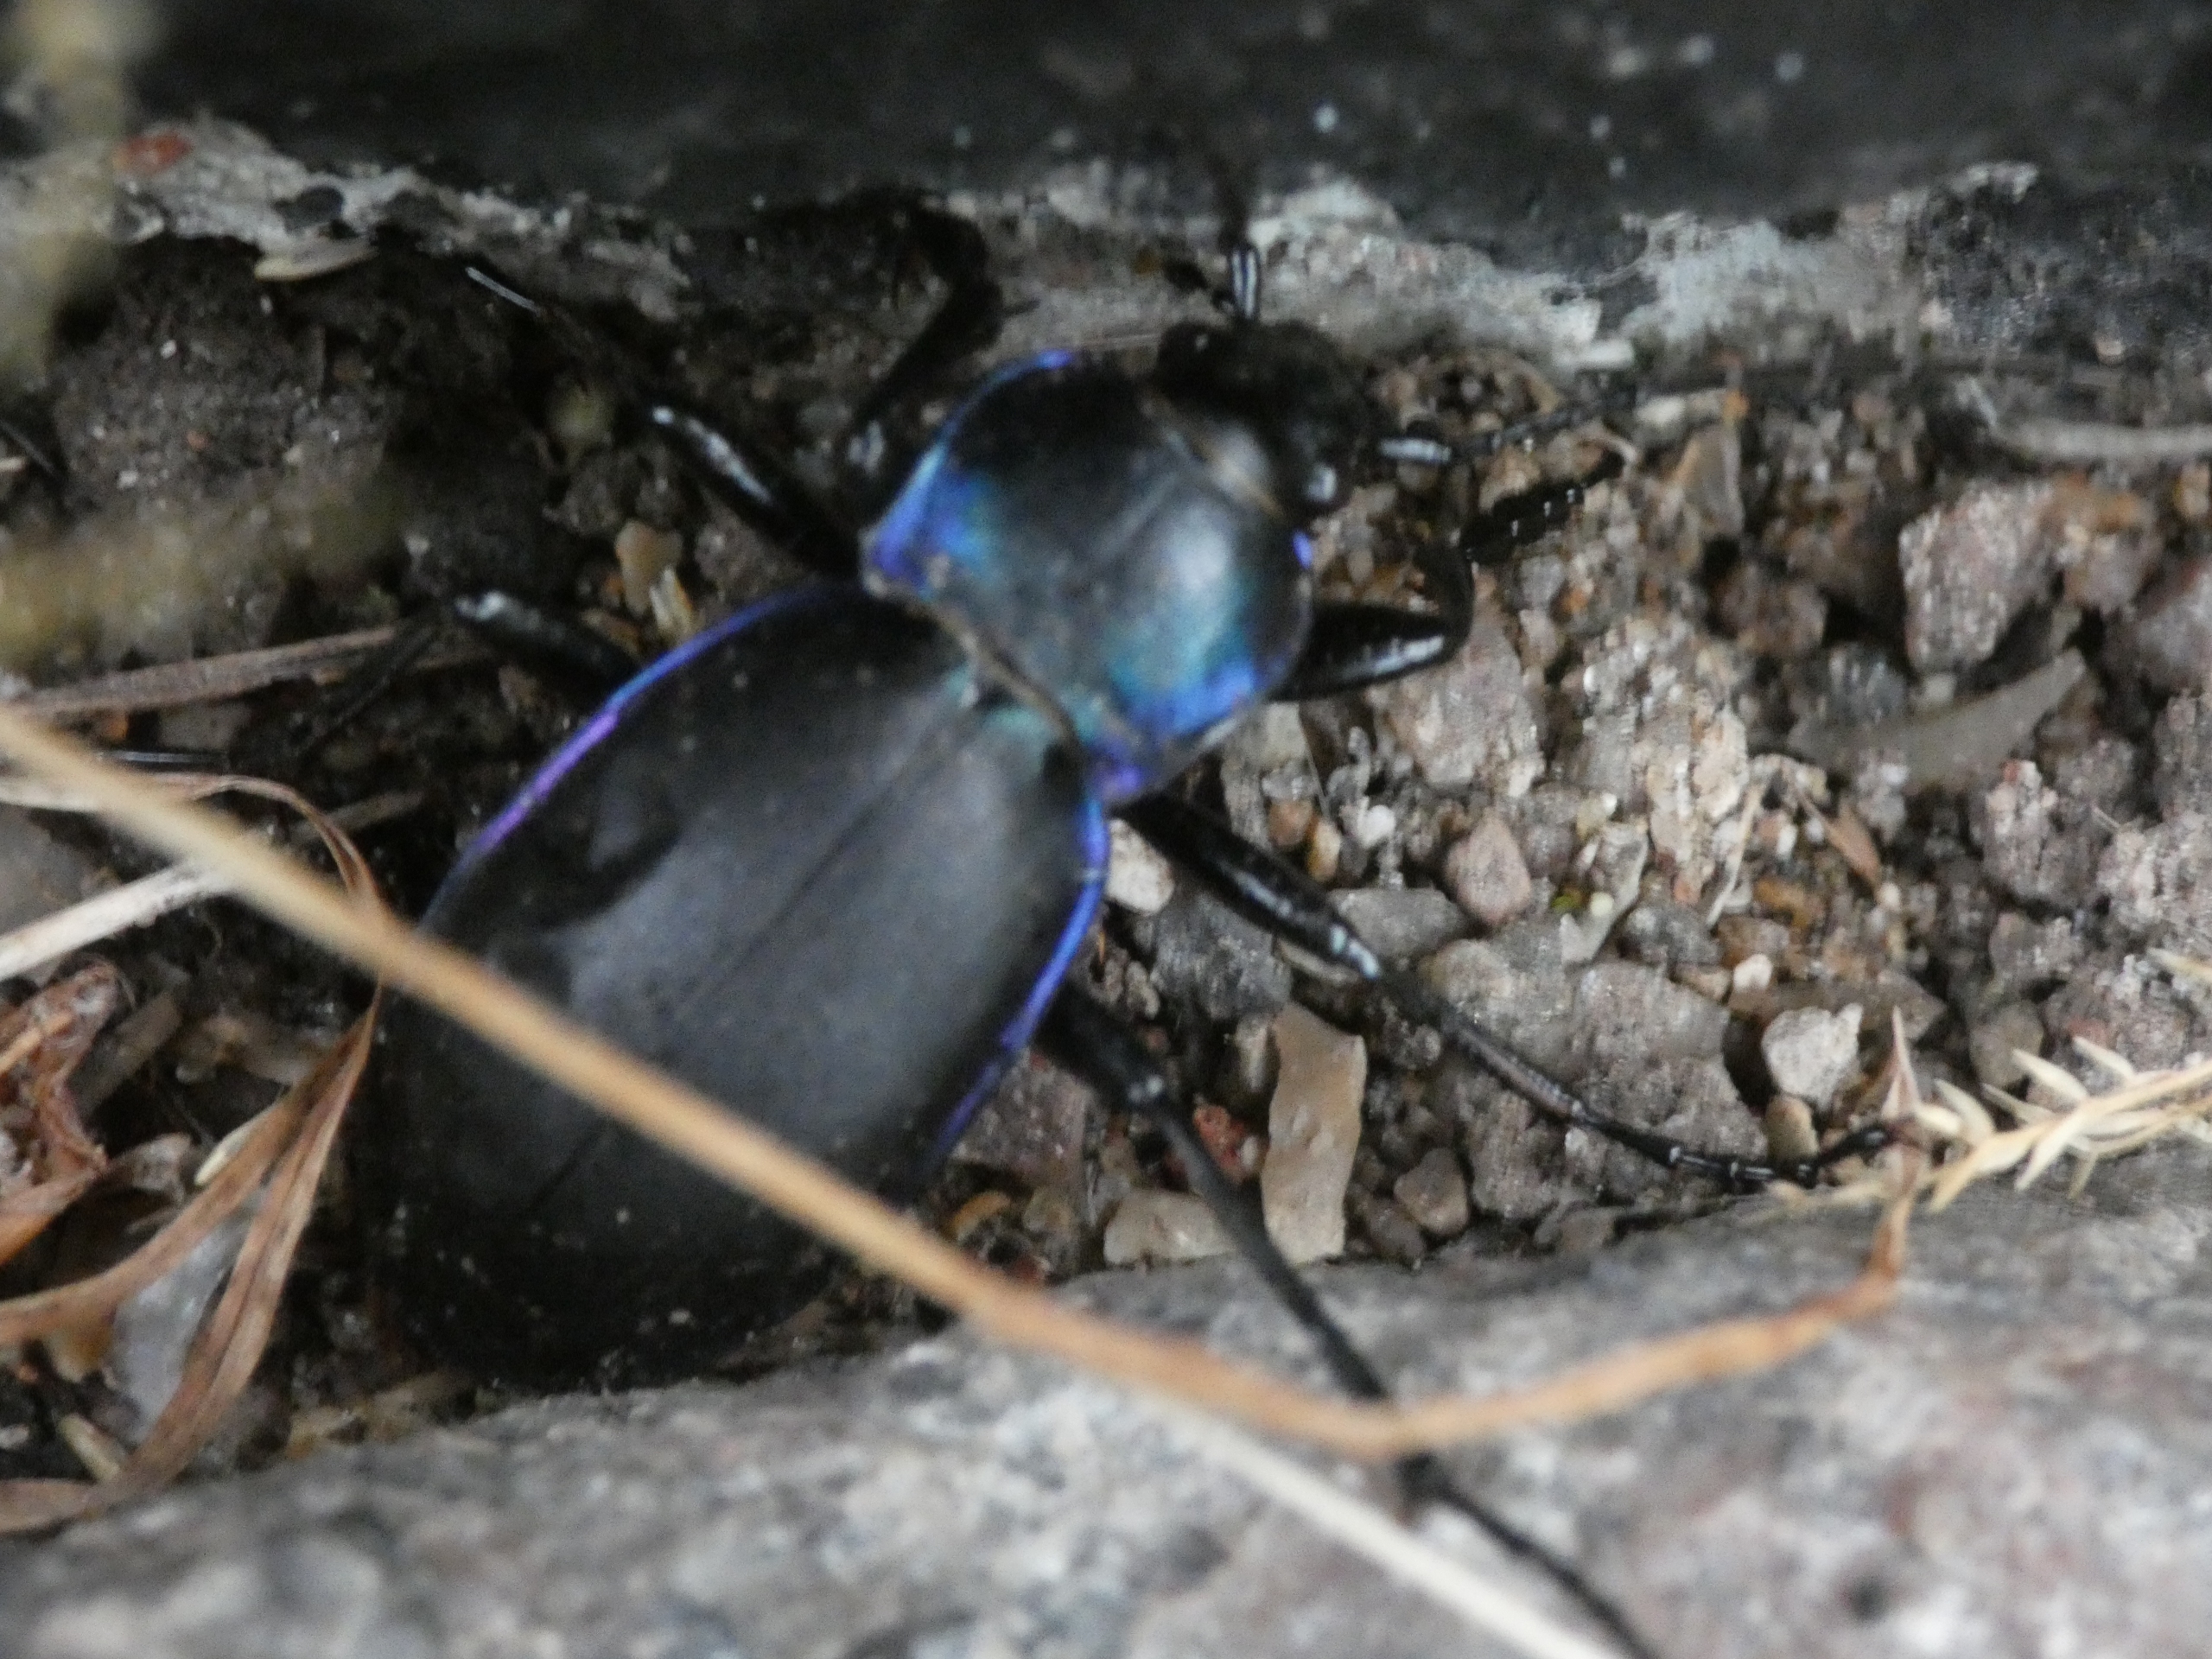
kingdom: Animalia
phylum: Arthropoda
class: Insecta
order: Coleoptera
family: Carabidae
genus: Carabus
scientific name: Carabus violaceus
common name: Violetrandet løber
